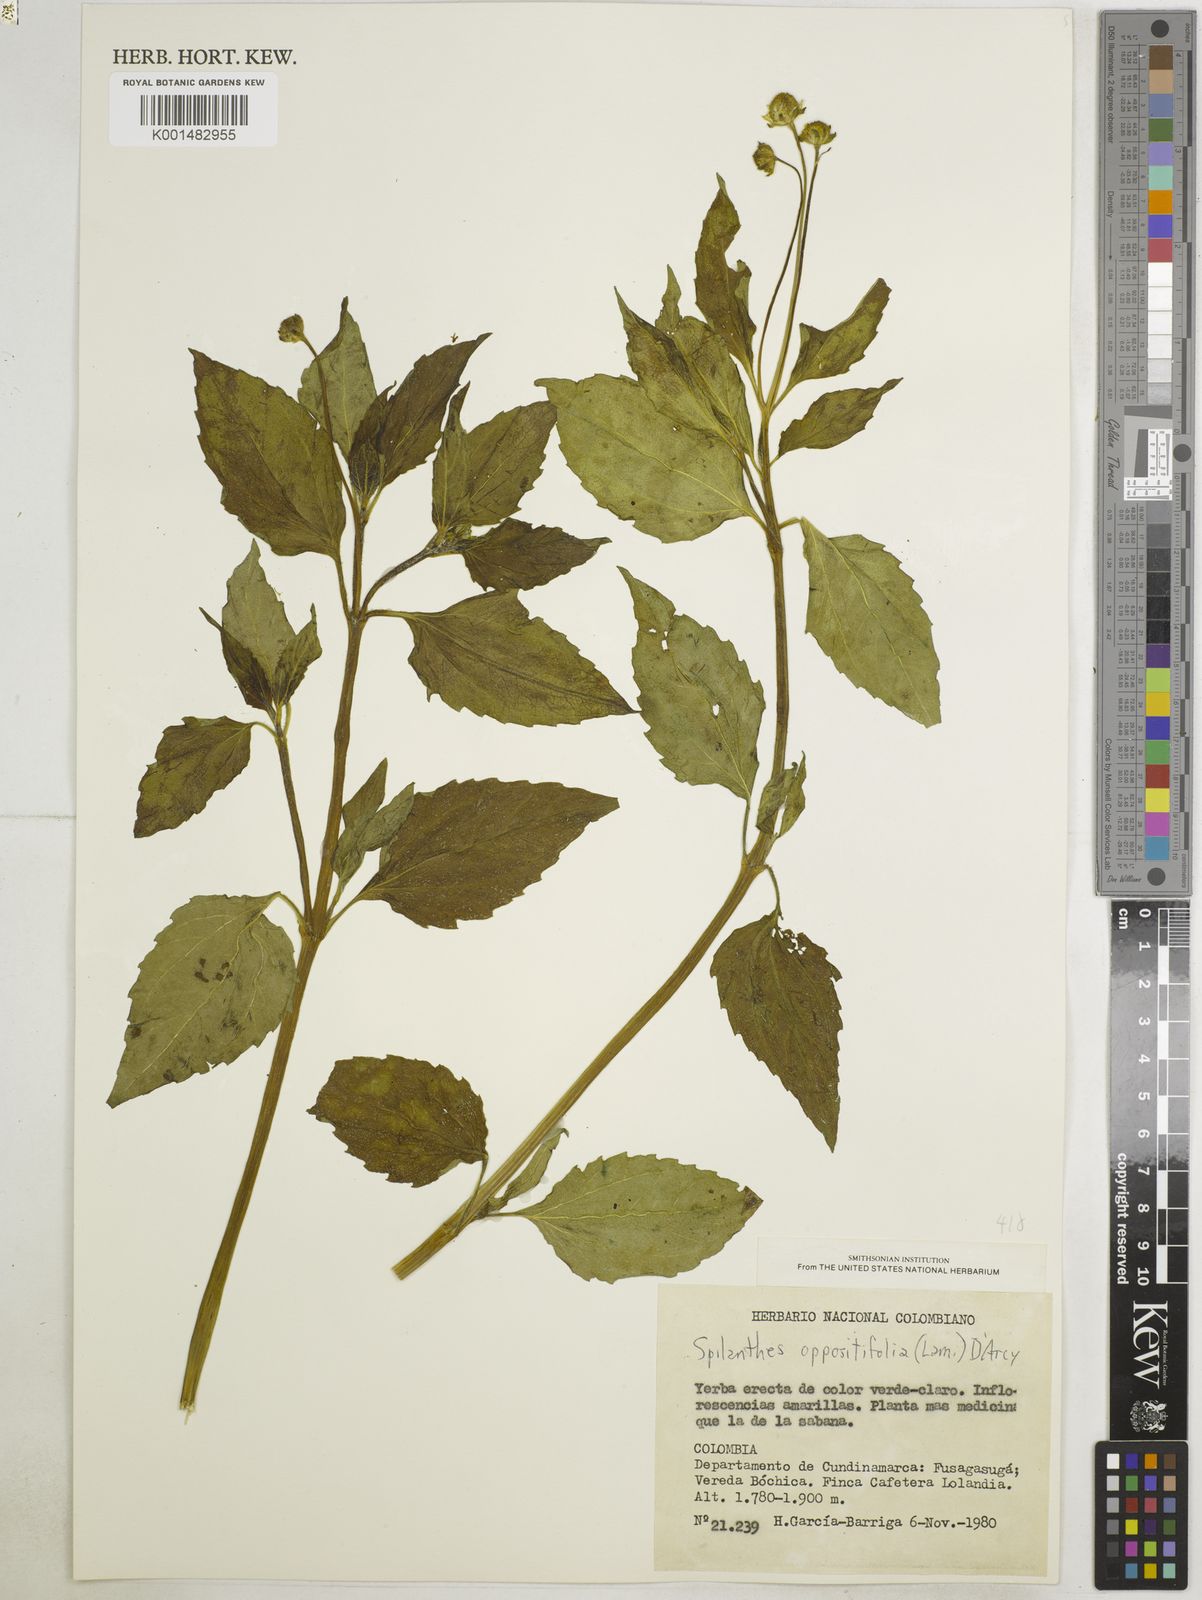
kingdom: Plantae
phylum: Tracheophyta
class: Magnoliopsida
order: Asterales
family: Asteraceae
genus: Heliopsis
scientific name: Heliopsis buphthalmoides
